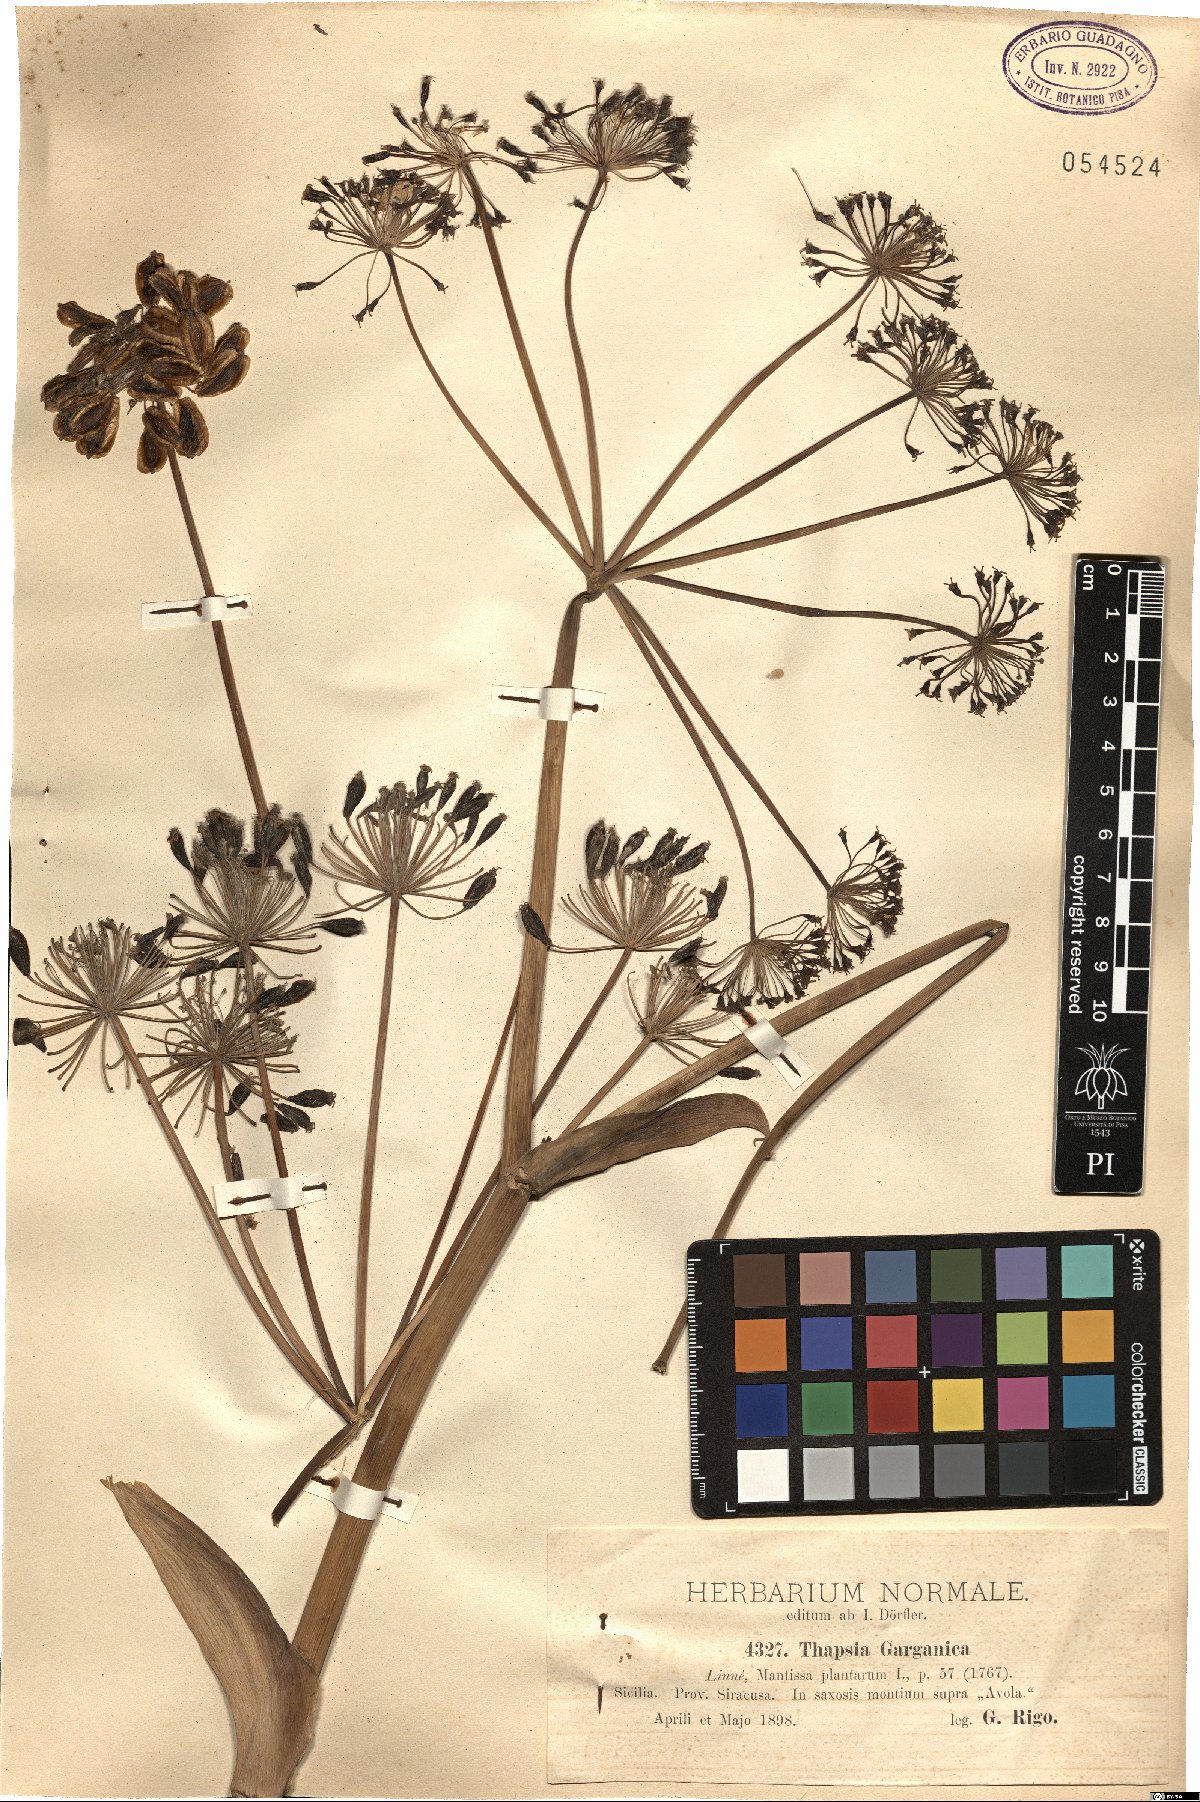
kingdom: Plantae
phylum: Tracheophyta
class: Magnoliopsida
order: Apiales
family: Apiaceae
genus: Thapsia
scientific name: Thapsia garganica
